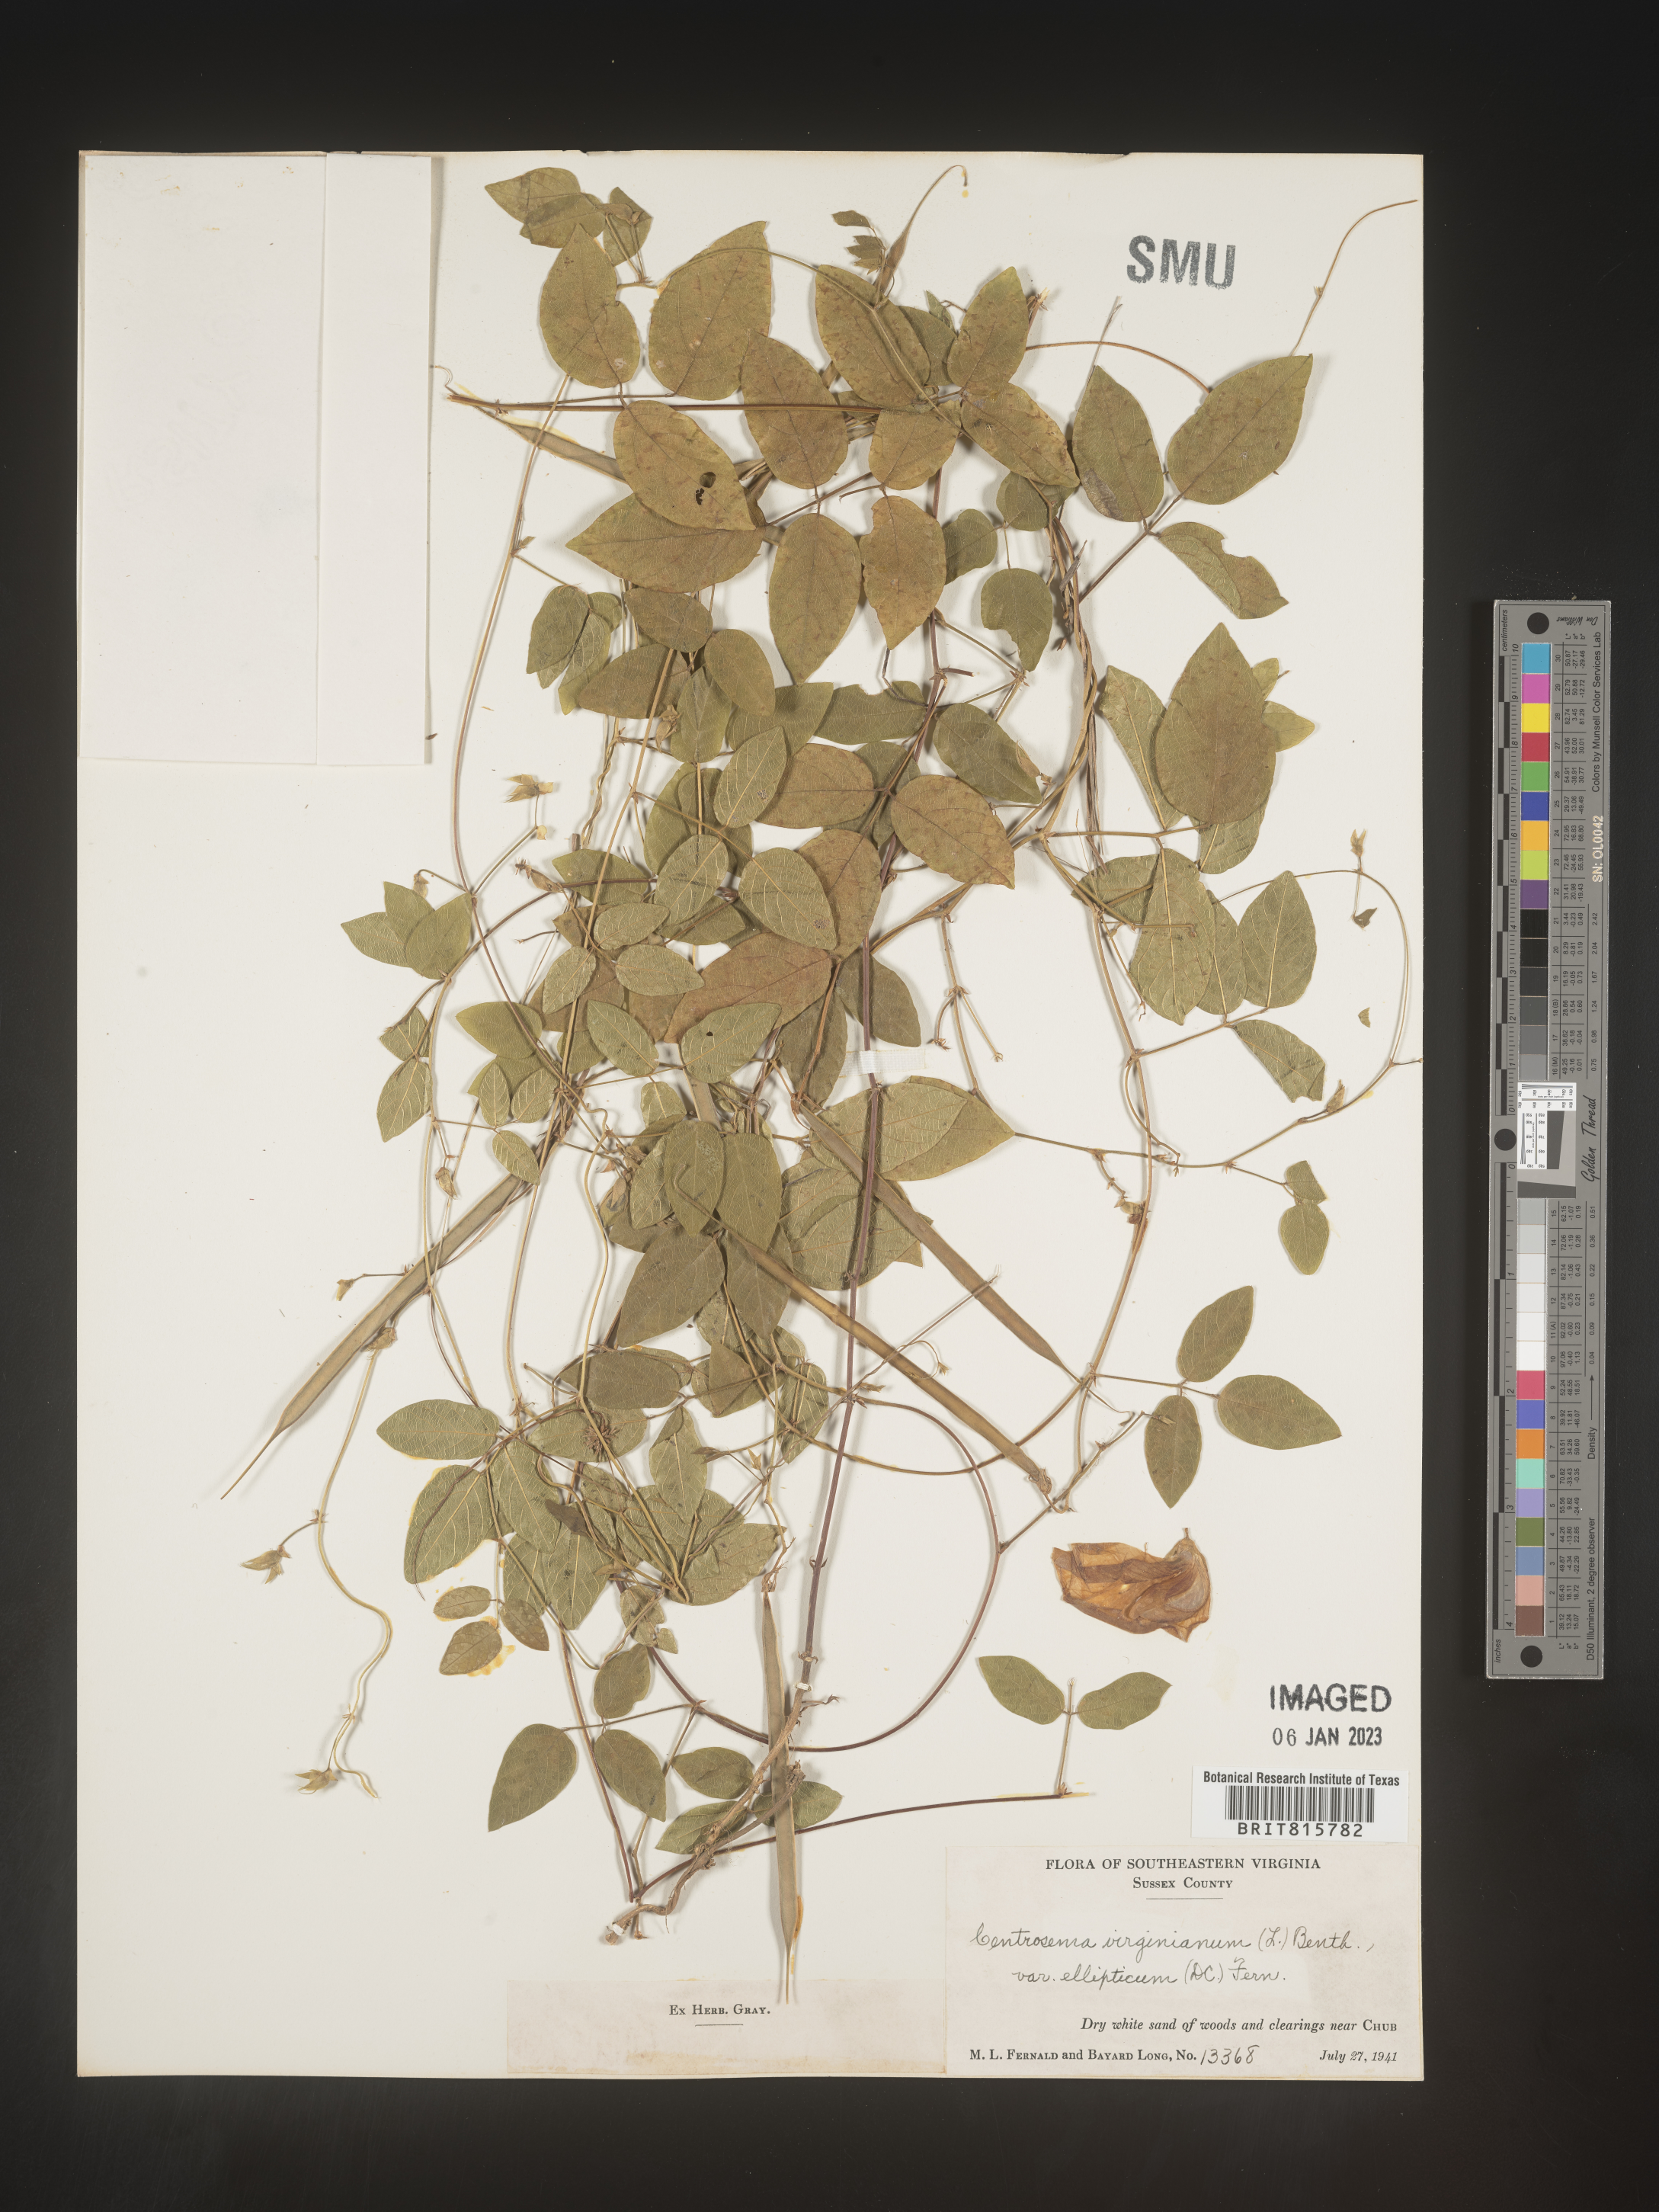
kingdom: Plantae
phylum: Tracheophyta
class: Magnoliopsida
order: Fabales
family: Fabaceae
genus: Centrosema
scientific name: Centrosema virginianum
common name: Butterfly-pea
